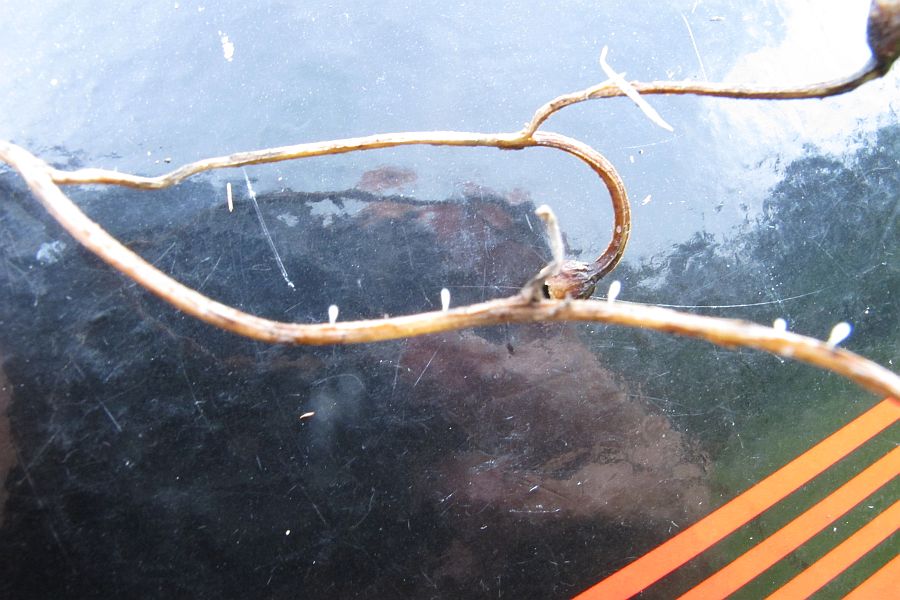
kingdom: Fungi
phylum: Basidiomycota
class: Agaricomycetes
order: Agaricales
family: Typhulaceae
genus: Typhula
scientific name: Typhula micans
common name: lyserød trådkølle
